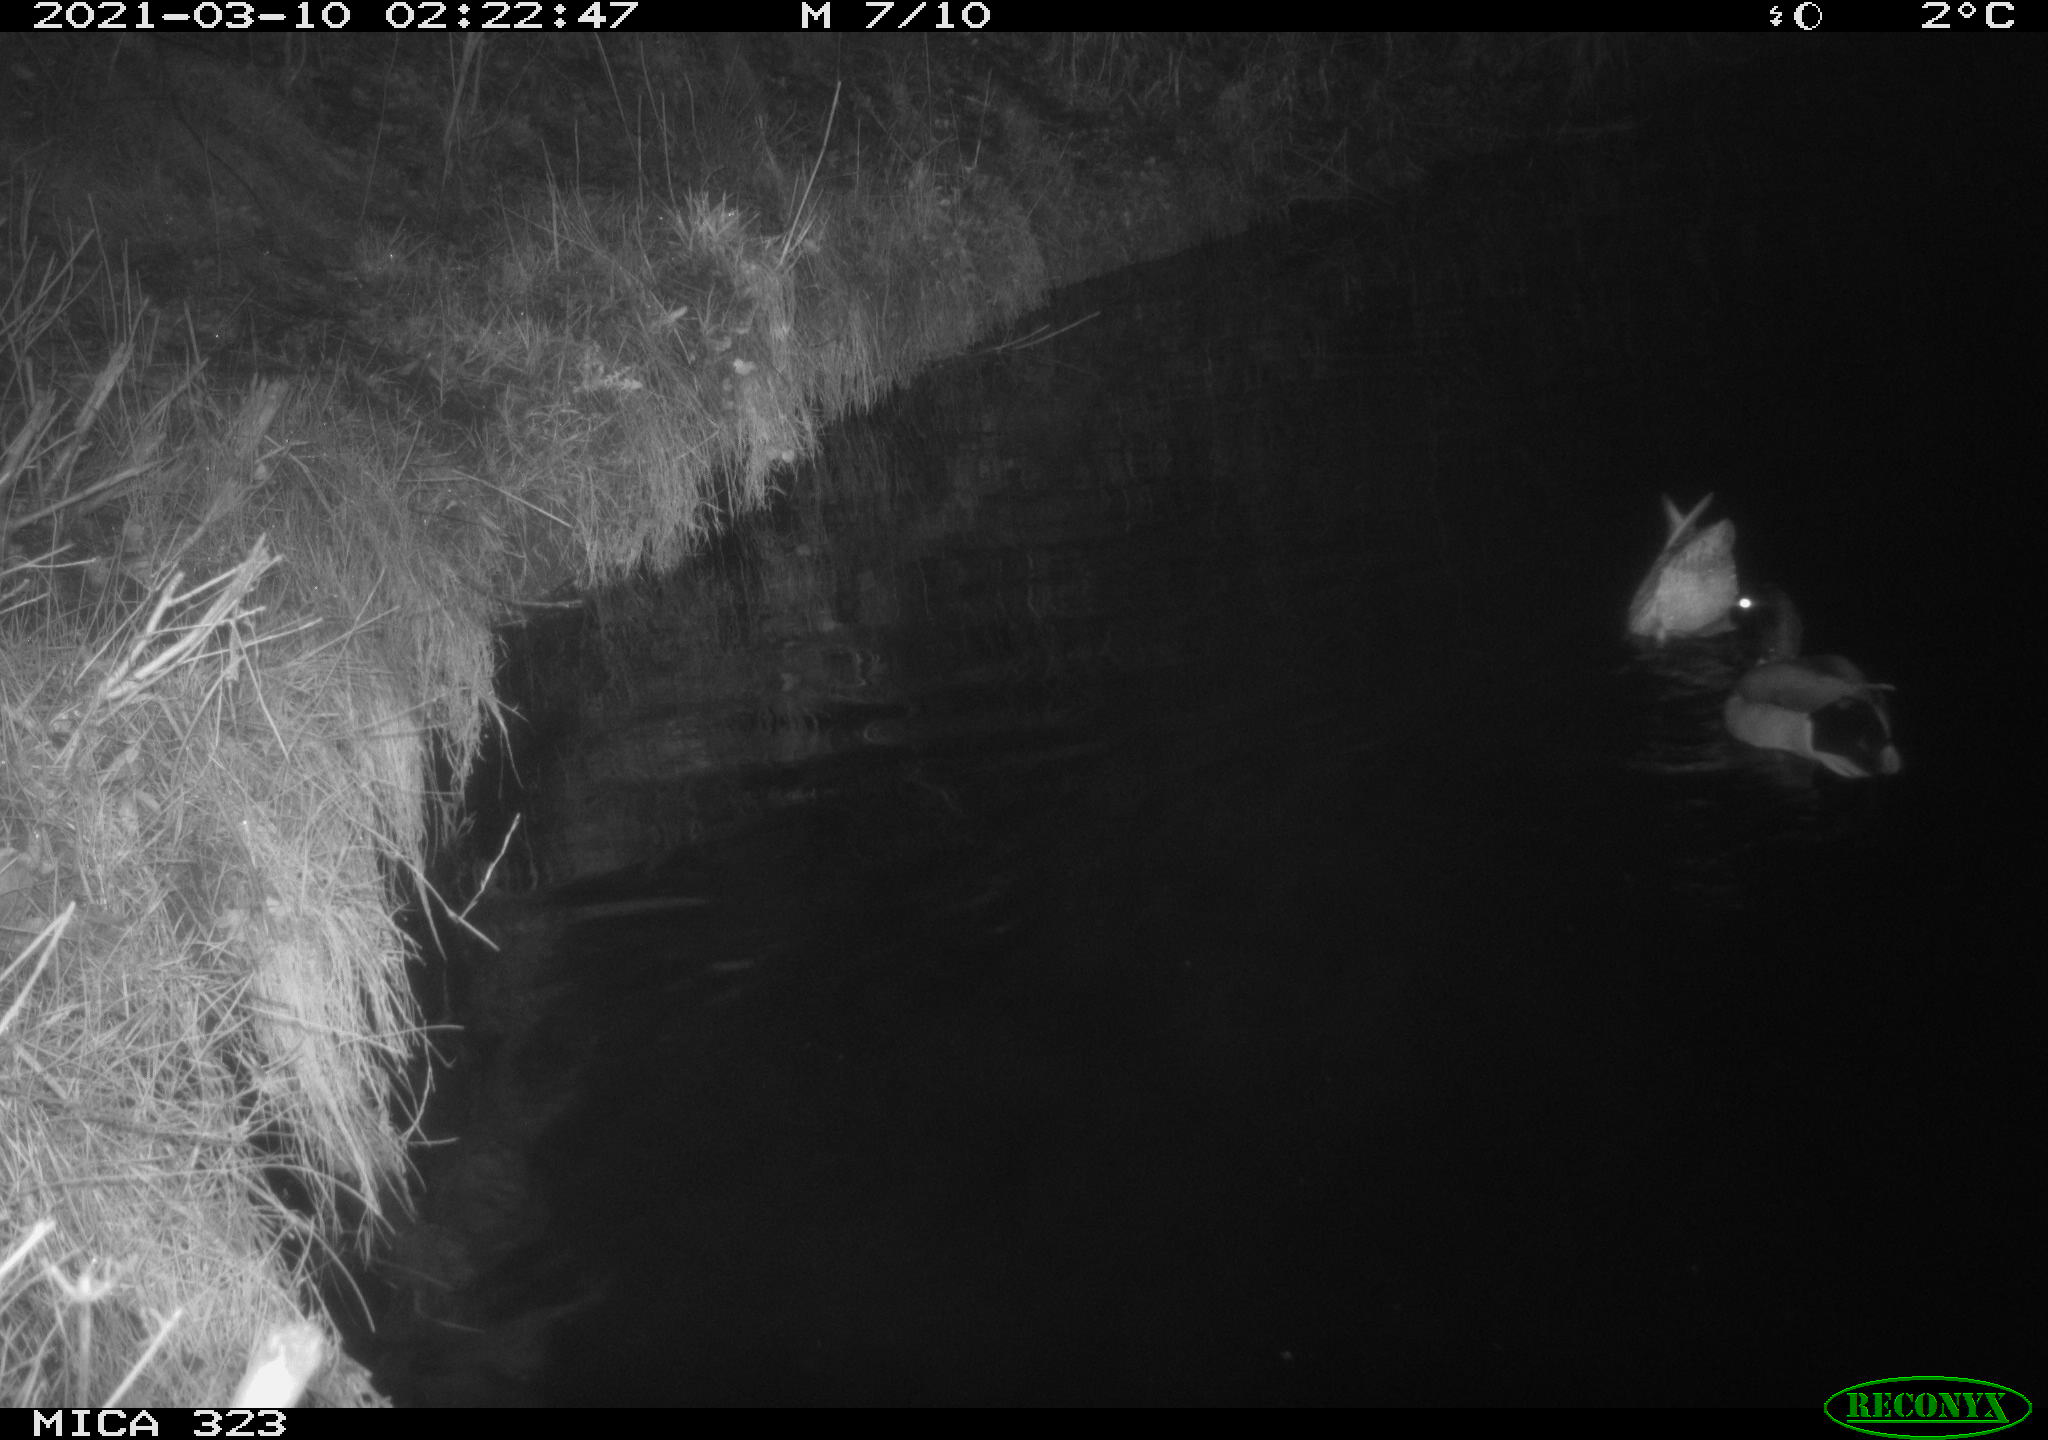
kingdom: Animalia
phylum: Chordata
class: Aves
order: Anseriformes
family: Anatidae
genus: Anas
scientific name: Anas platyrhynchos
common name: Mallard
